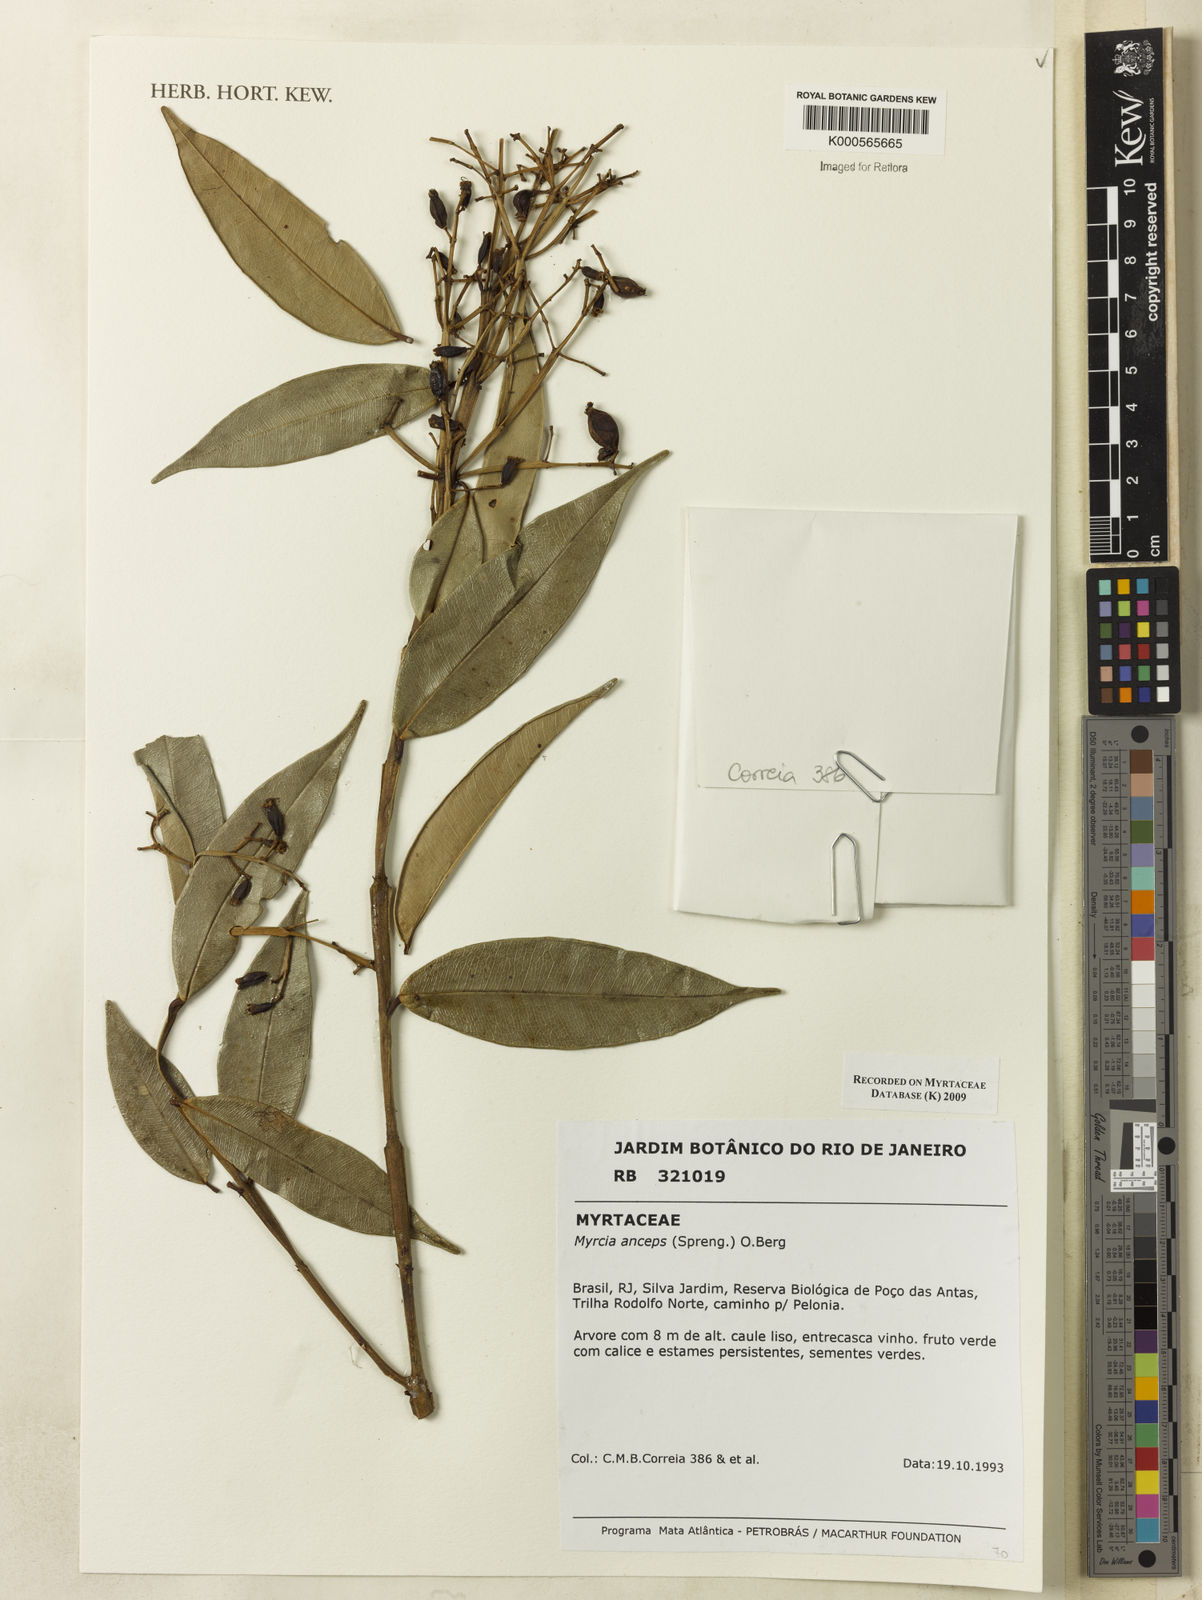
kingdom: Plantae
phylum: Tracheophyta
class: Magnoliopsida
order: Myrtales
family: Myrtaceae
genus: Myrcia
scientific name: Myrcia anceps
